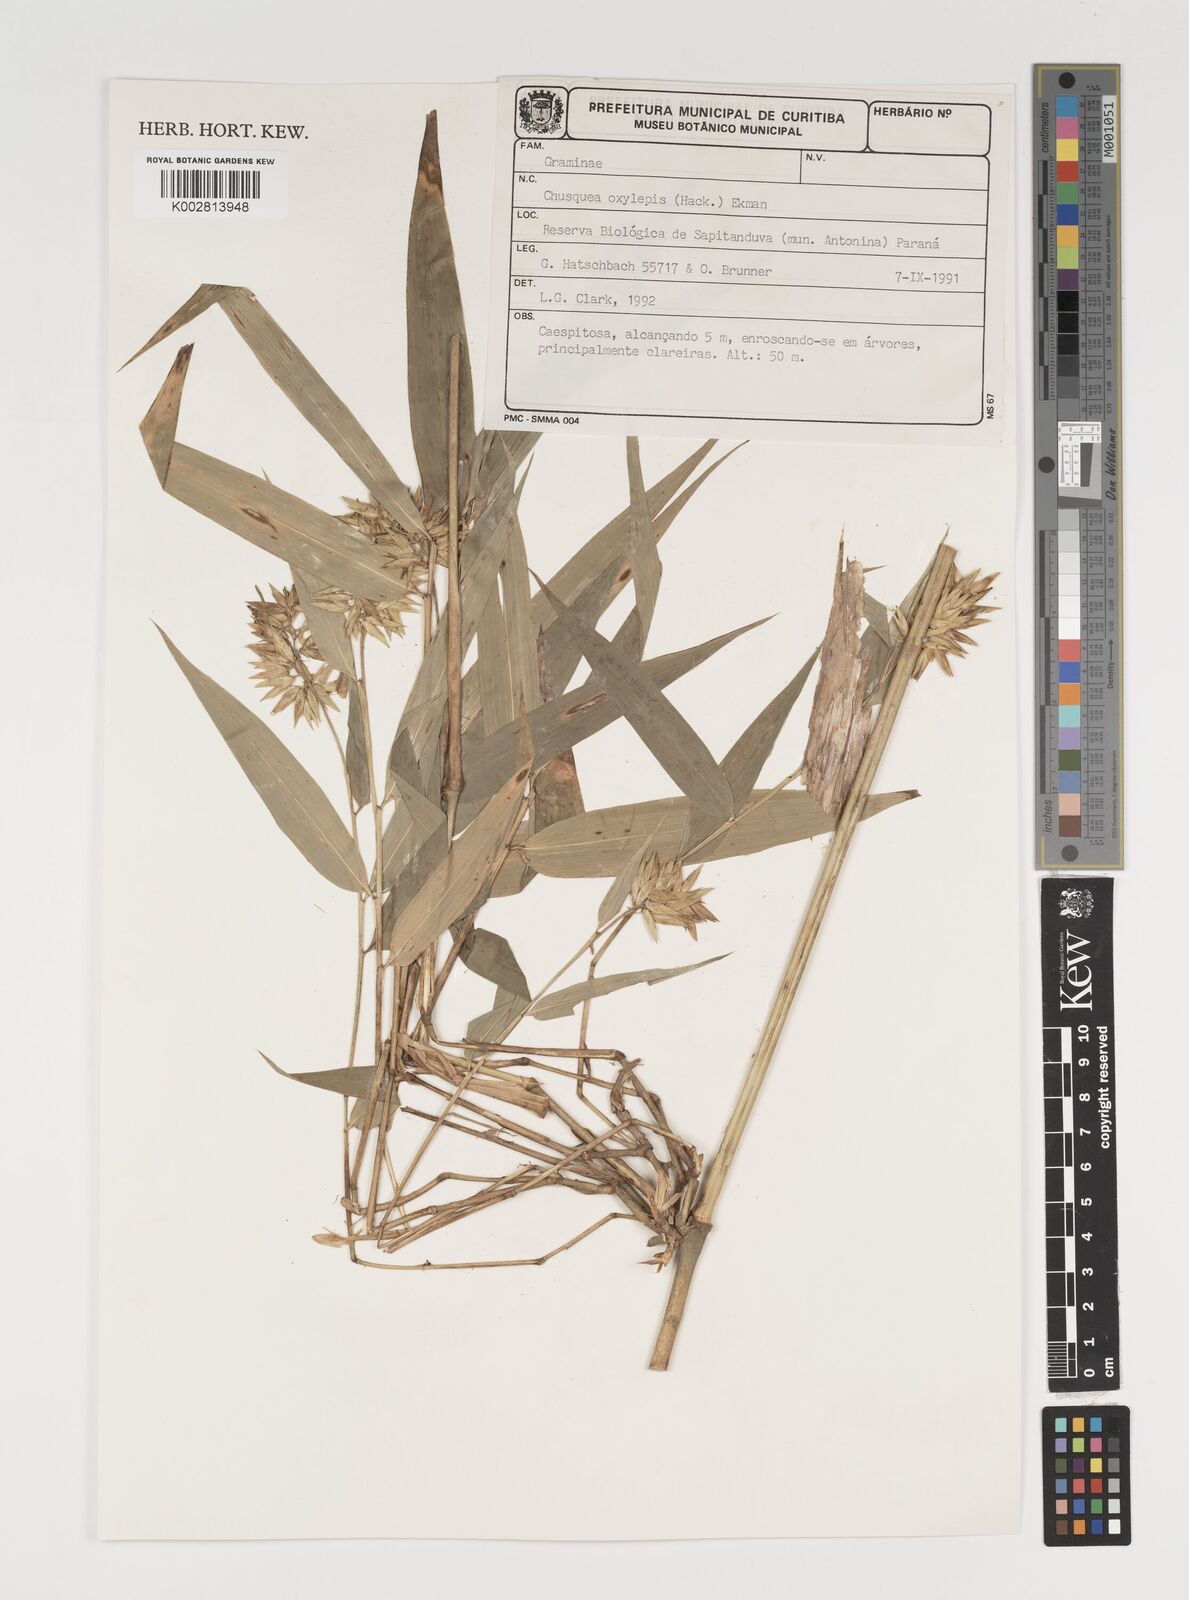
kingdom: Plantae
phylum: Tracheophyta
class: Liliopsida
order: Poales
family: Poaceae
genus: Chusquea
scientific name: Chusquea oxylepis
